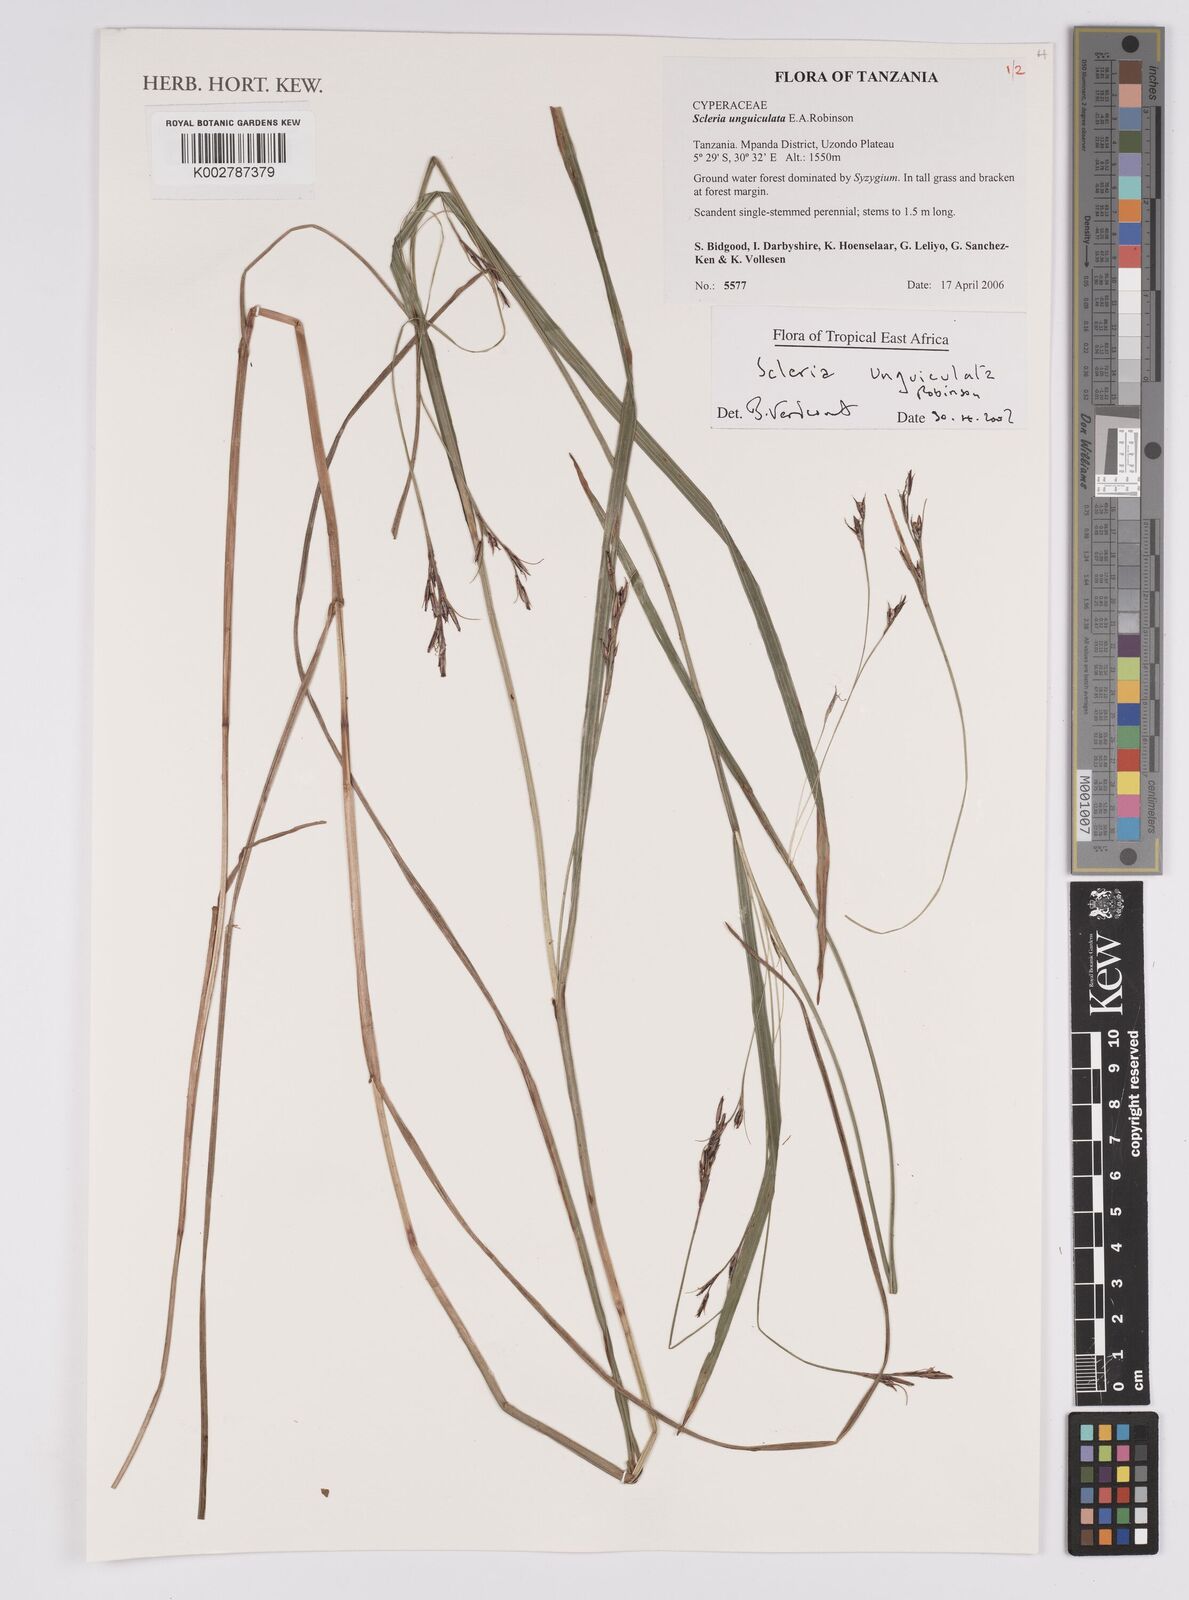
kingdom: Plantae
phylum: Tracheophyta
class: Liliopsida
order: Poales
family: Cyperaceae
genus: Scleria
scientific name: Scleria unguiculata
